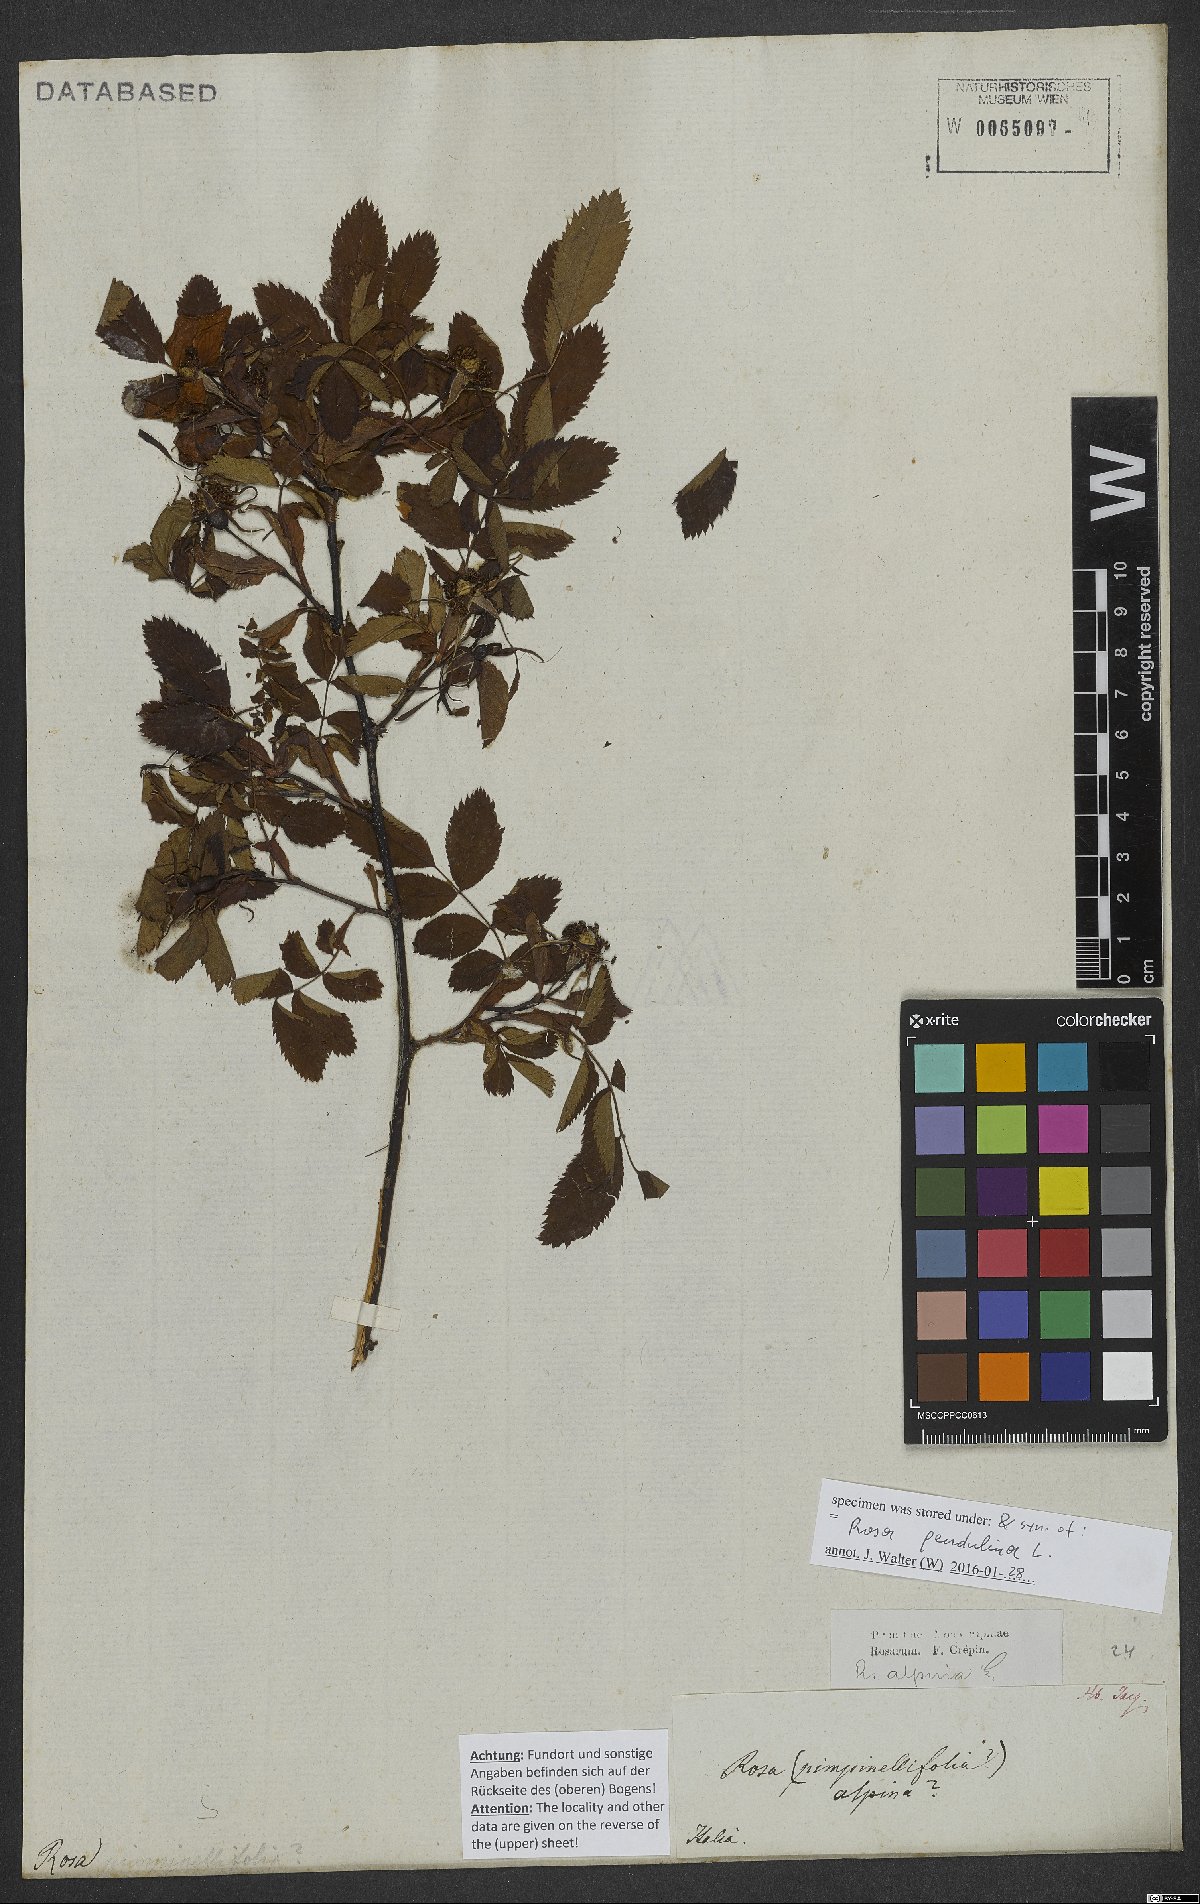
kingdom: Plantae
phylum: Tracheophyta
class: Magnoliopsida
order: Rosales
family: Rosaceae
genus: Rosa
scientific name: Rosa pendulina
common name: Alpine rose
